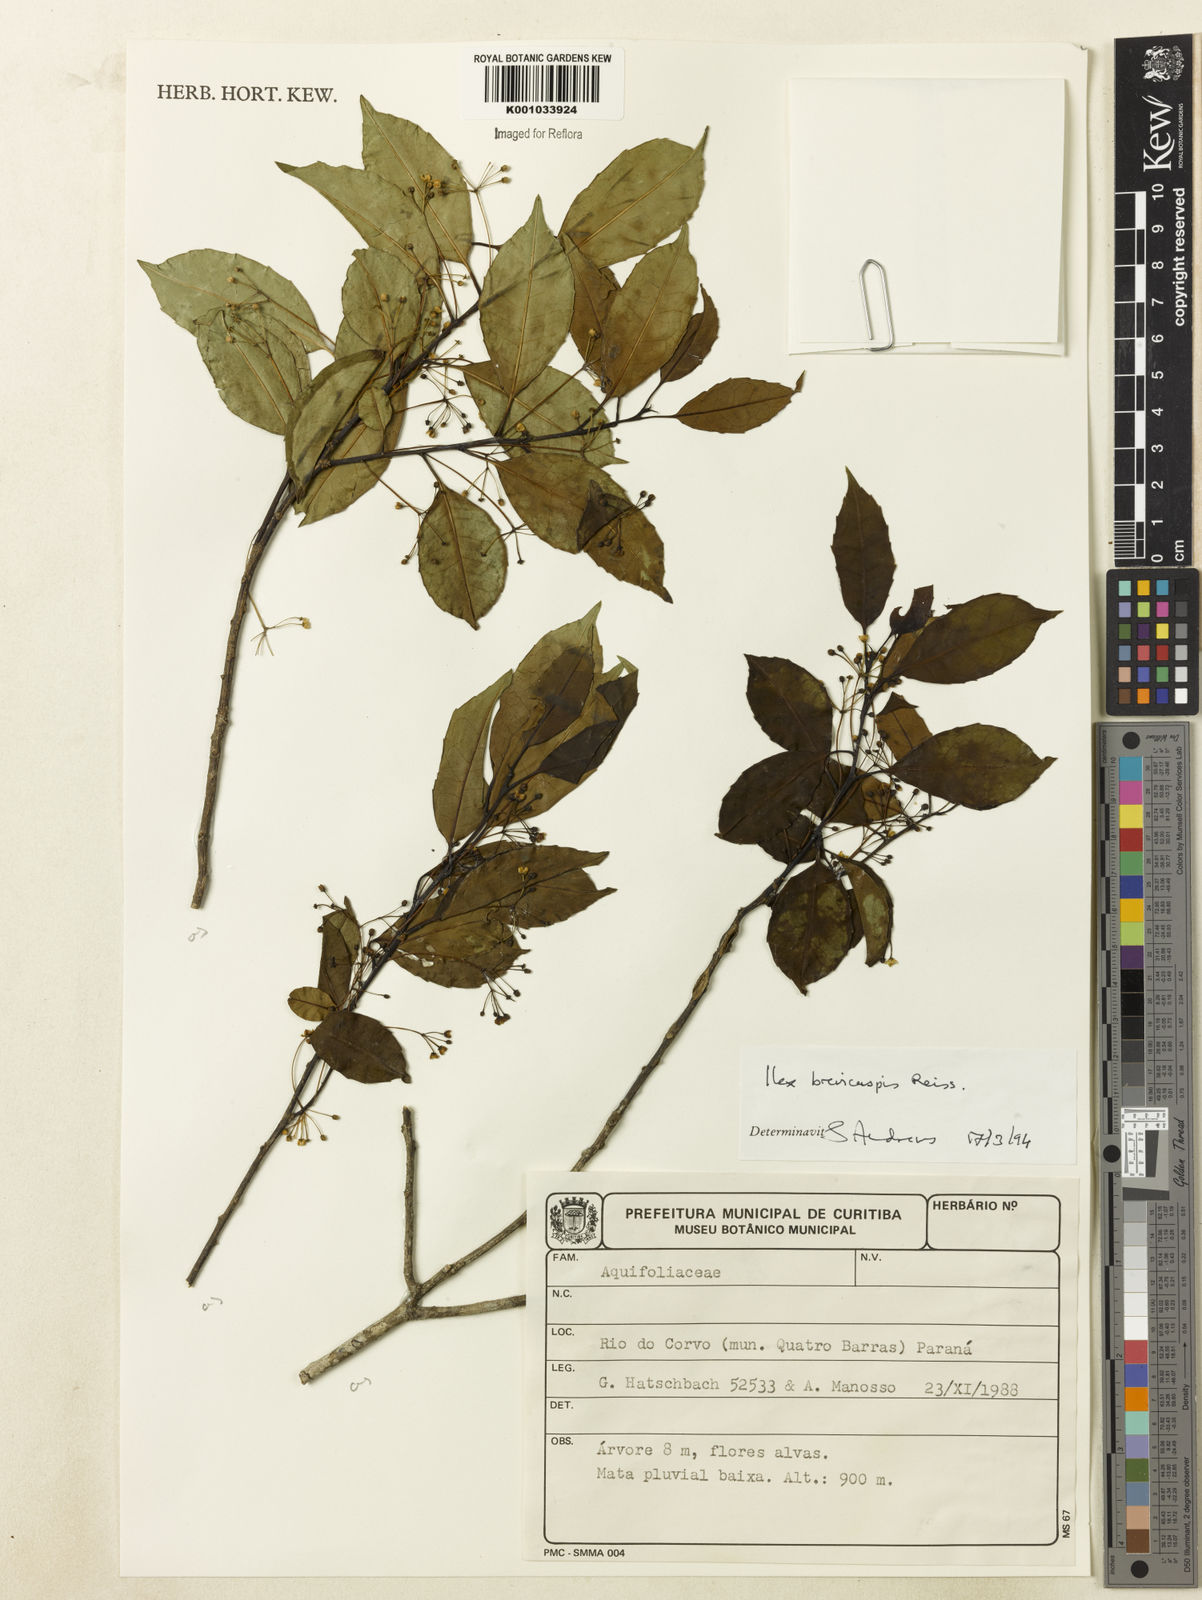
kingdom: Plantae
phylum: Tracheophyta
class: Magnoliopsida
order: Aquifoliales
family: Aquifoliaceae
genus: Ilex
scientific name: Ilex brevicuspis
